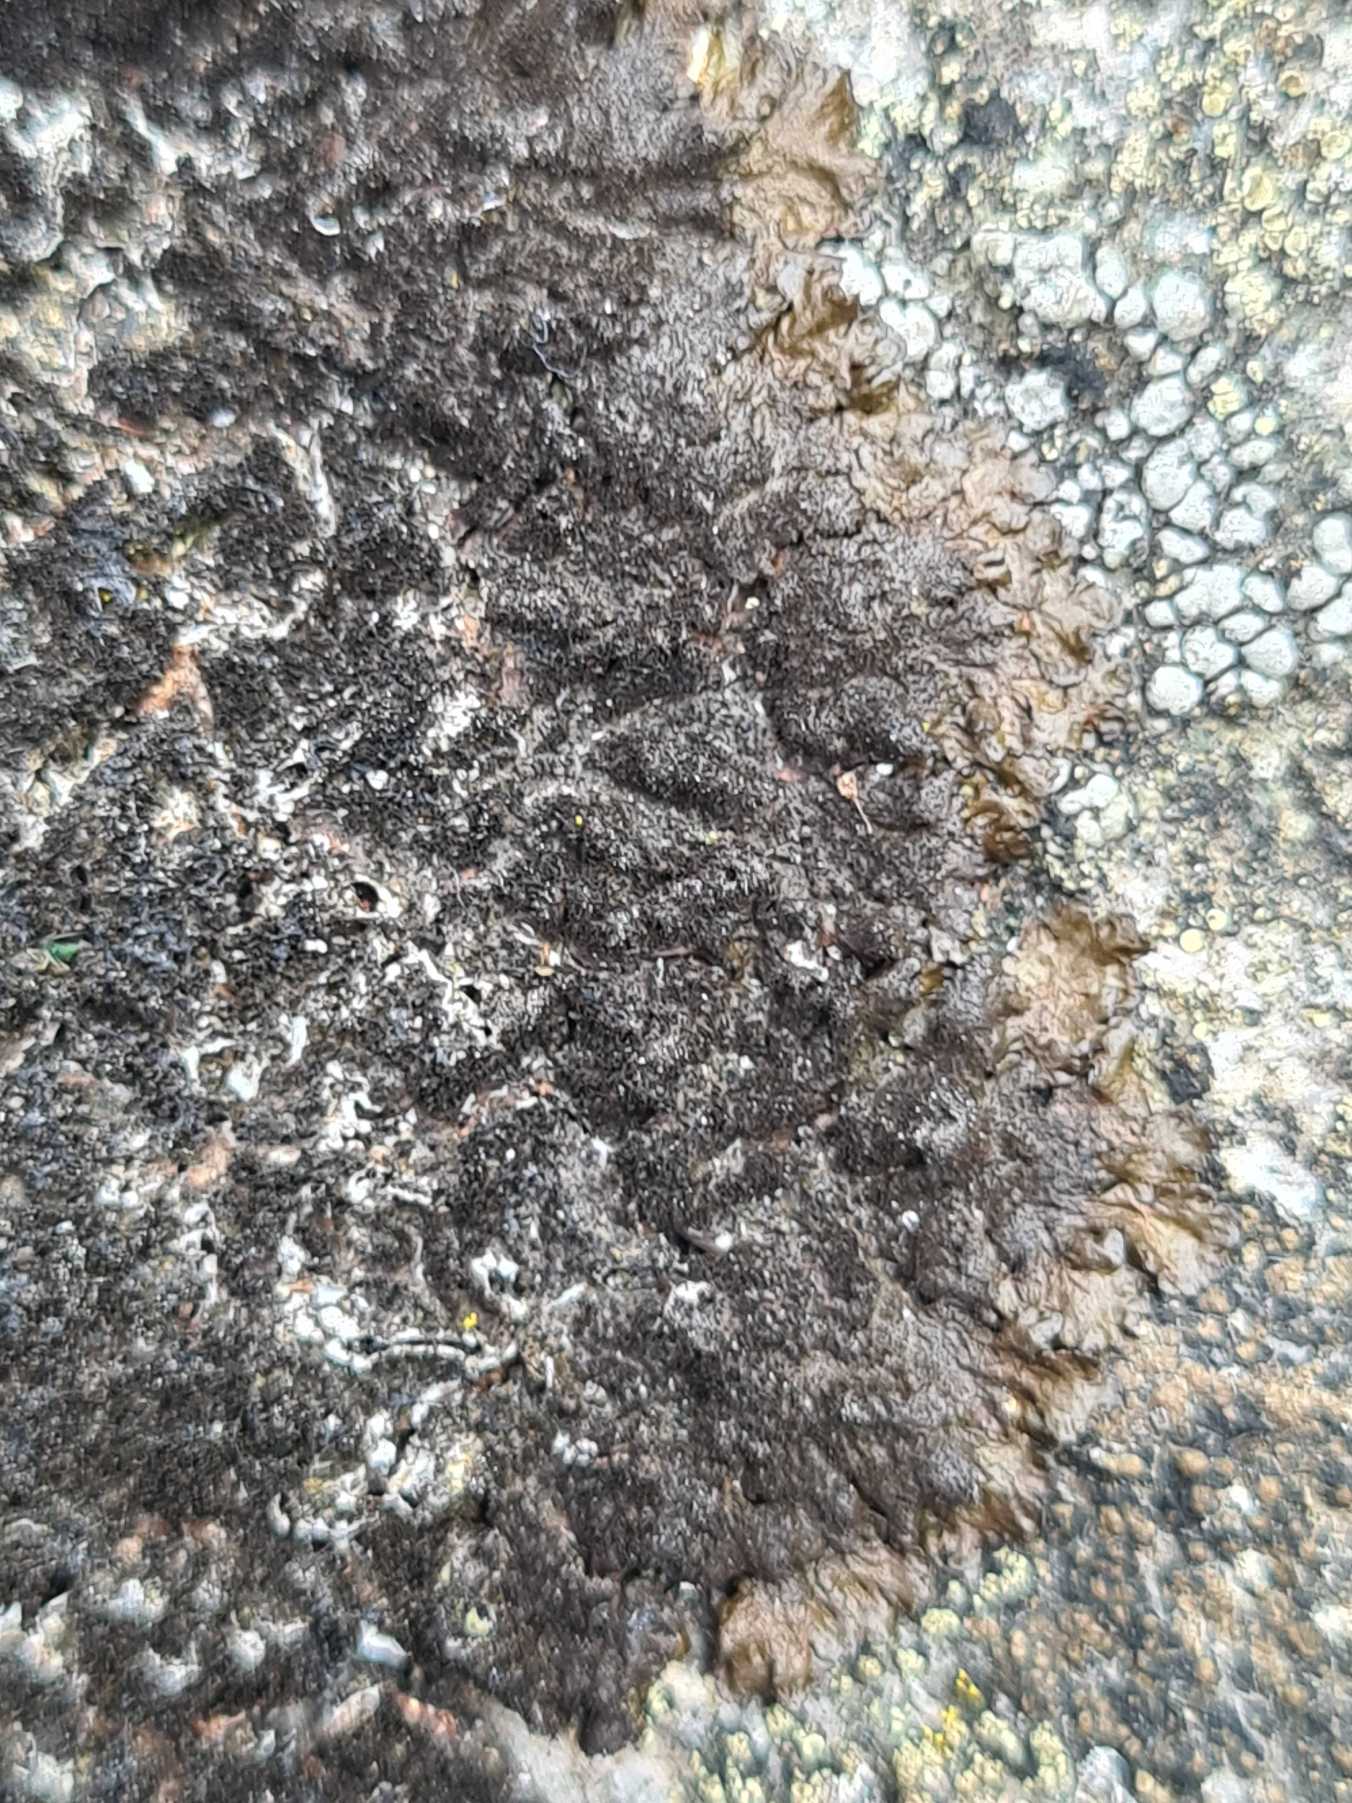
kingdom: Fungi
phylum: Ascomycota
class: Lecanoromycetes
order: Lecanorales
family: Parmeliaceae
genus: Melanelixia
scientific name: Melanelixia fuliginosa
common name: Sod-skållav
